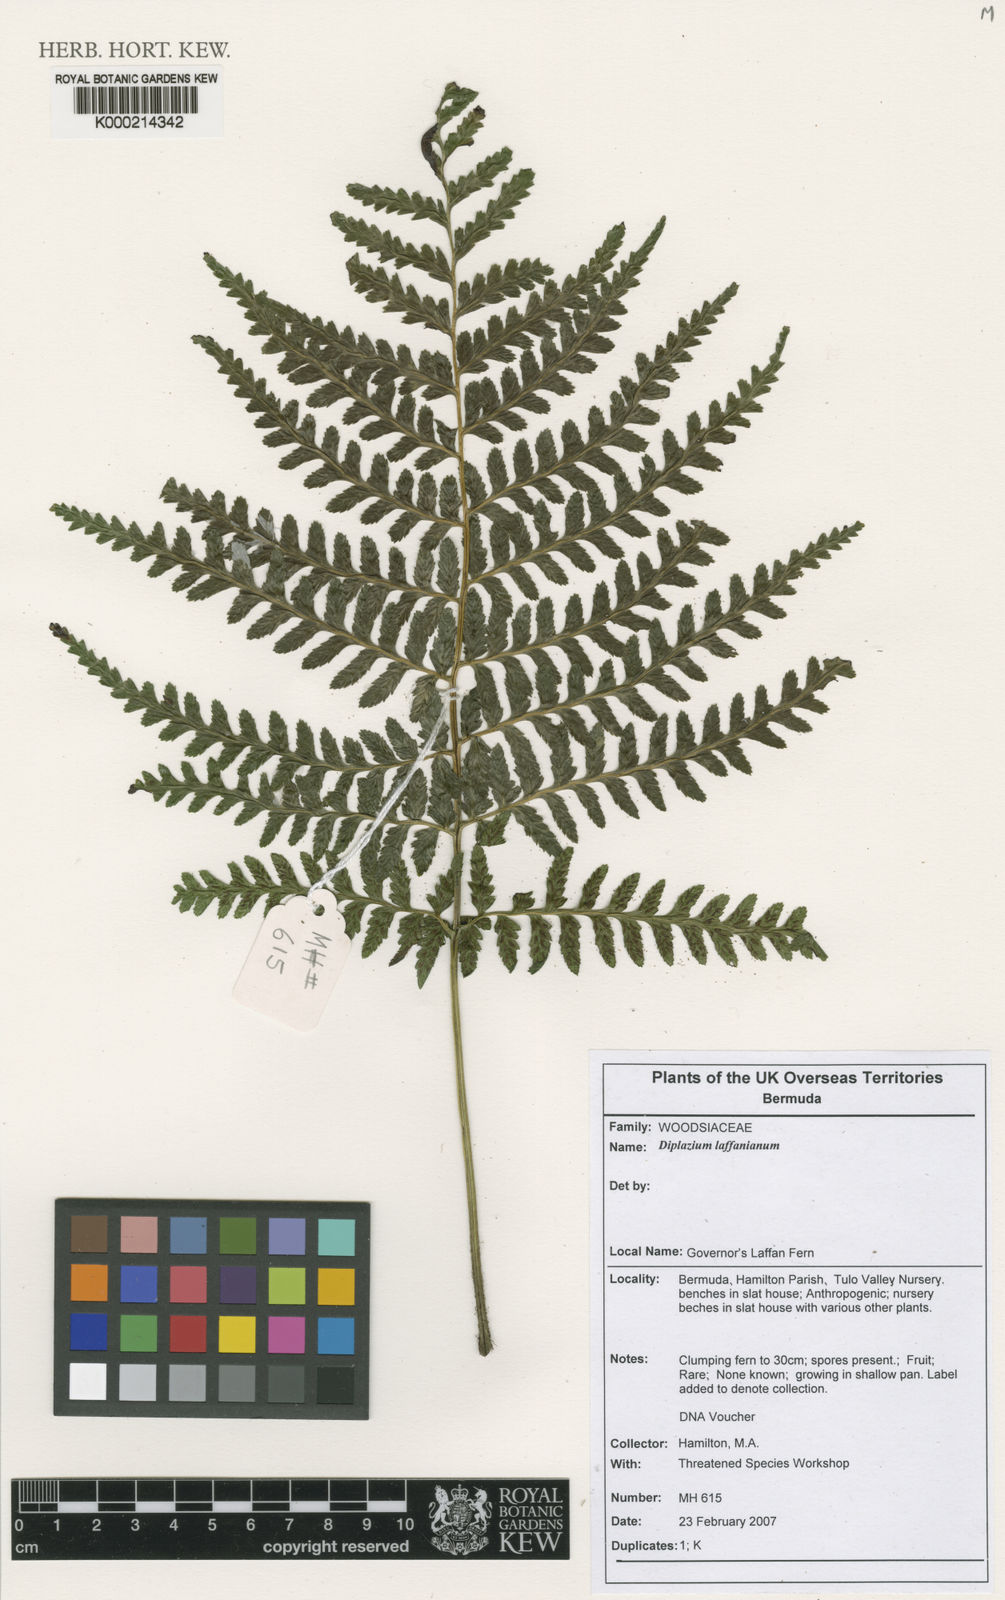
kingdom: Plantae
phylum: Tracheophyta
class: Polypodiopsida
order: Polypodiales
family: Athyriaceae
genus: Diplazium
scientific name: Diplazium laffanianum
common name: Governor laffan's fern
